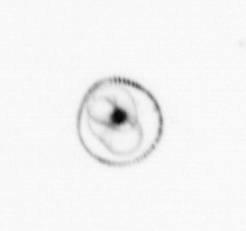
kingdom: Chromista
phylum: Myzozoa
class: Dinophyceae
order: Noctilucales
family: Noctilucaceae
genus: Noctiluca
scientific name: Noctiluca scintillans
